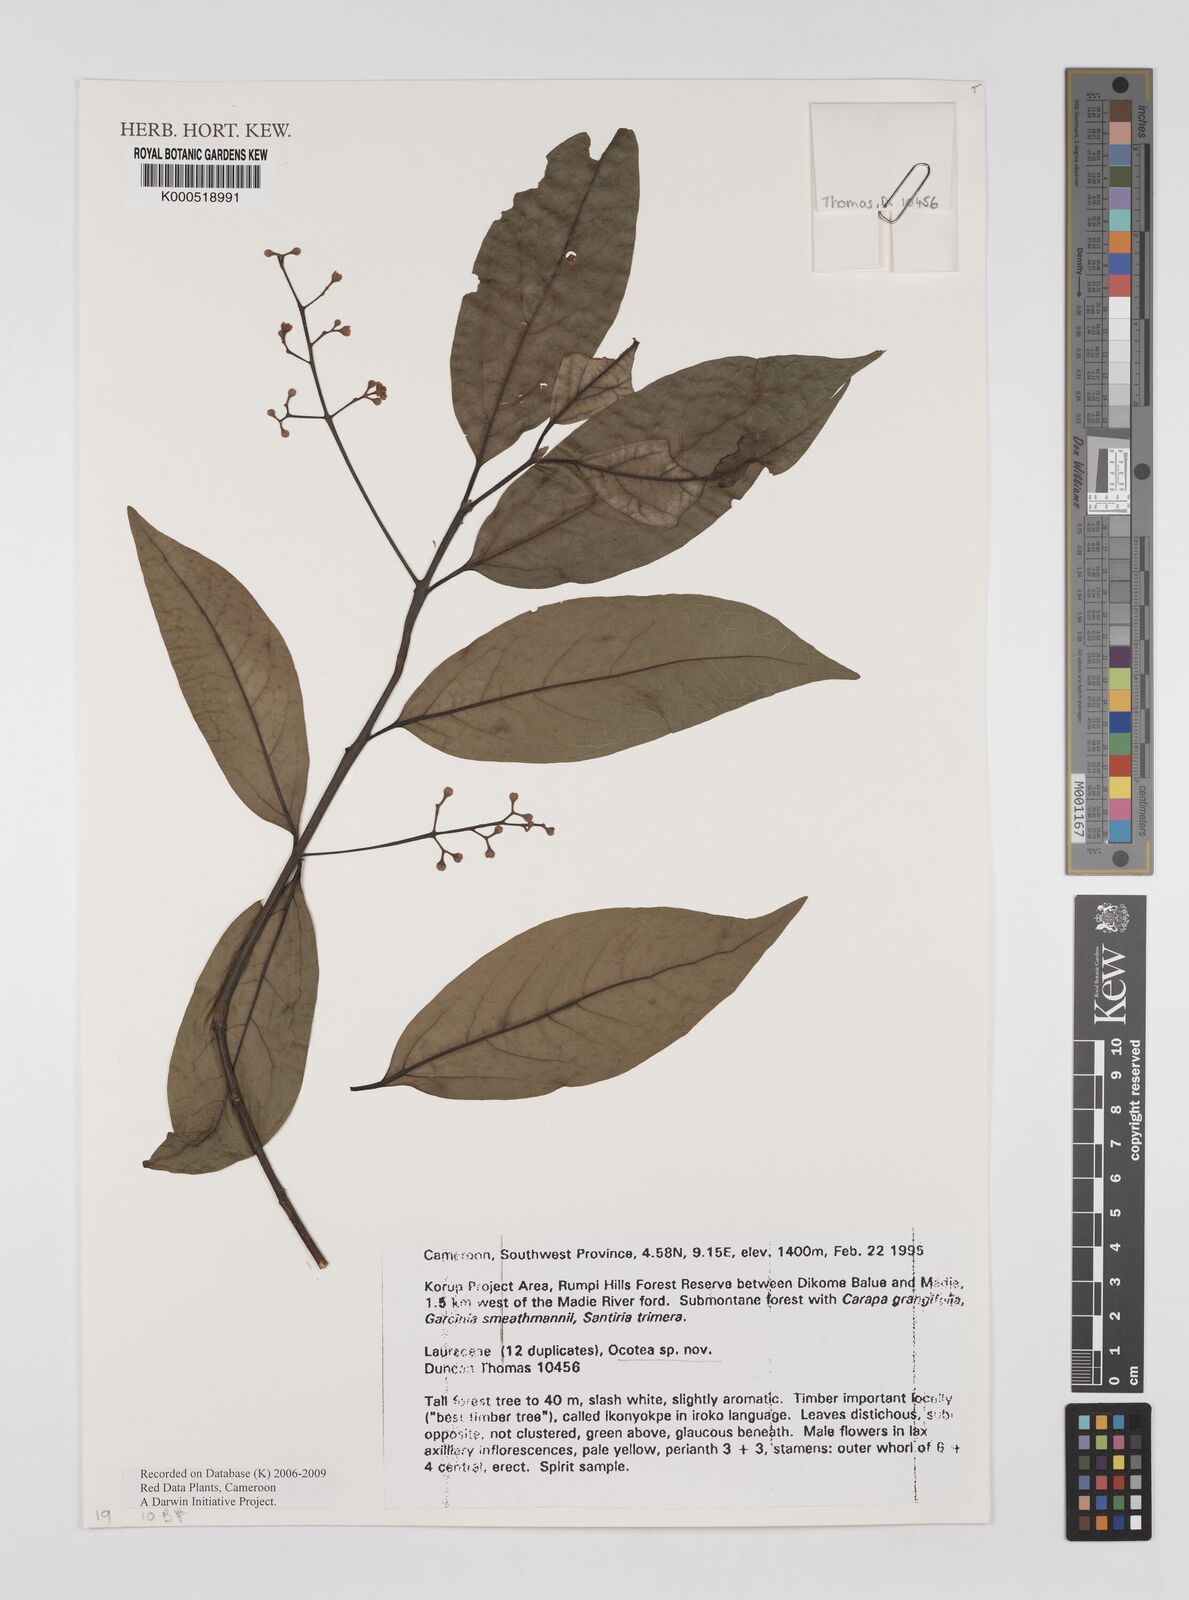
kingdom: Plantae
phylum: Tracheophyta
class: Magnoliopsida
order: Laurales
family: Lauraceae
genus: Ocotea
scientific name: Ocotea
